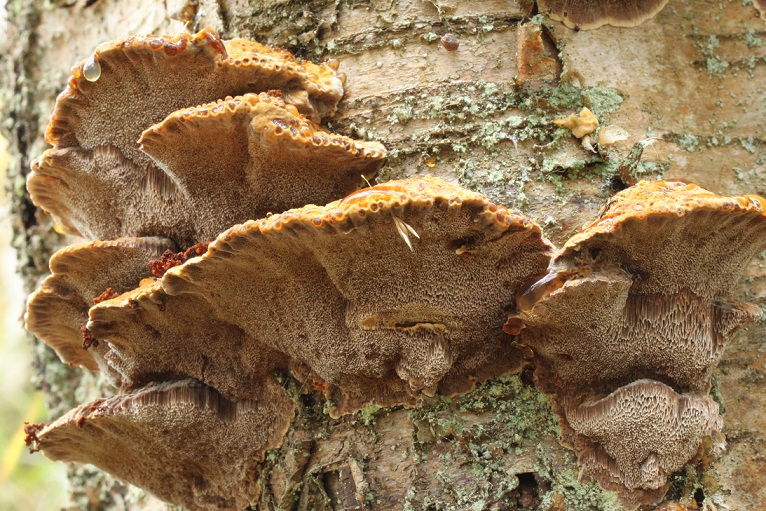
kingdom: Fungi
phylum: Basidiomycota
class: Agaricomycetes
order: Hymenochaetales
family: Hymenochaetaceae
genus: Xanthoporia
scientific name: Xanthoporia radiata
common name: elle-spejlporesvamp
